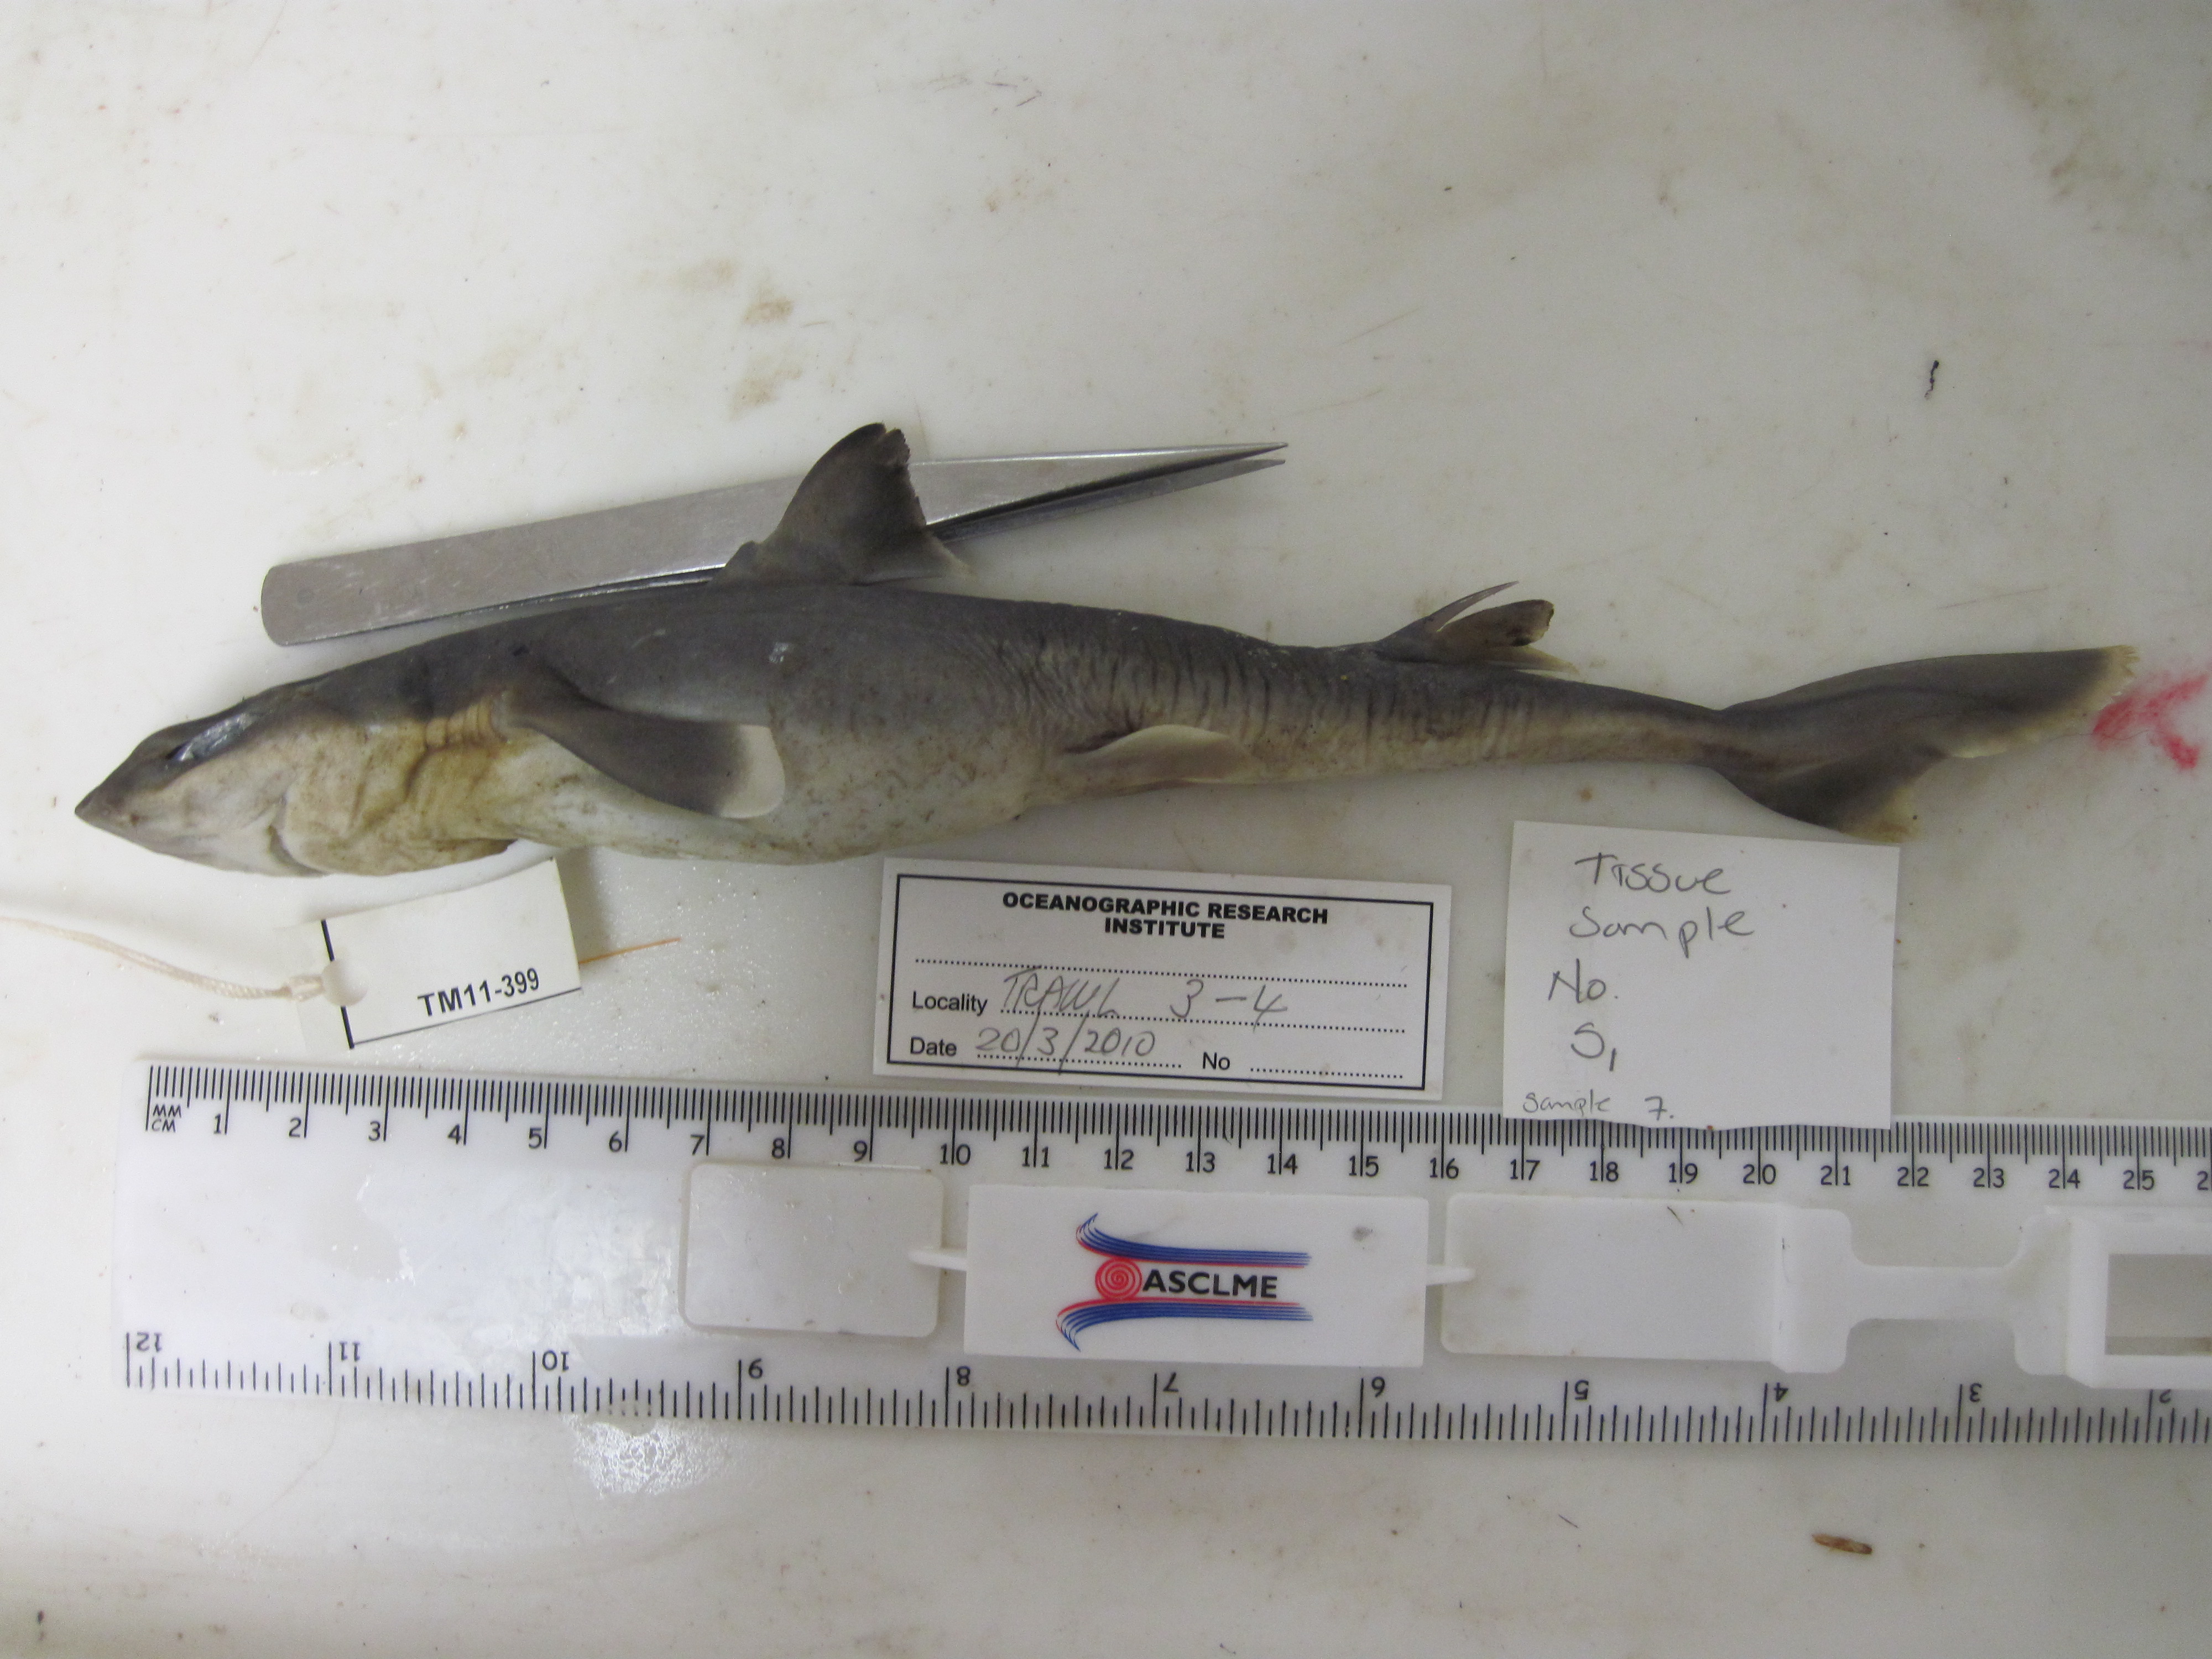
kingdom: Animalia
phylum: Chordata
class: Elasmobranchii
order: Squaliformes
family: Squalidae
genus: Squalus
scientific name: Squalus
